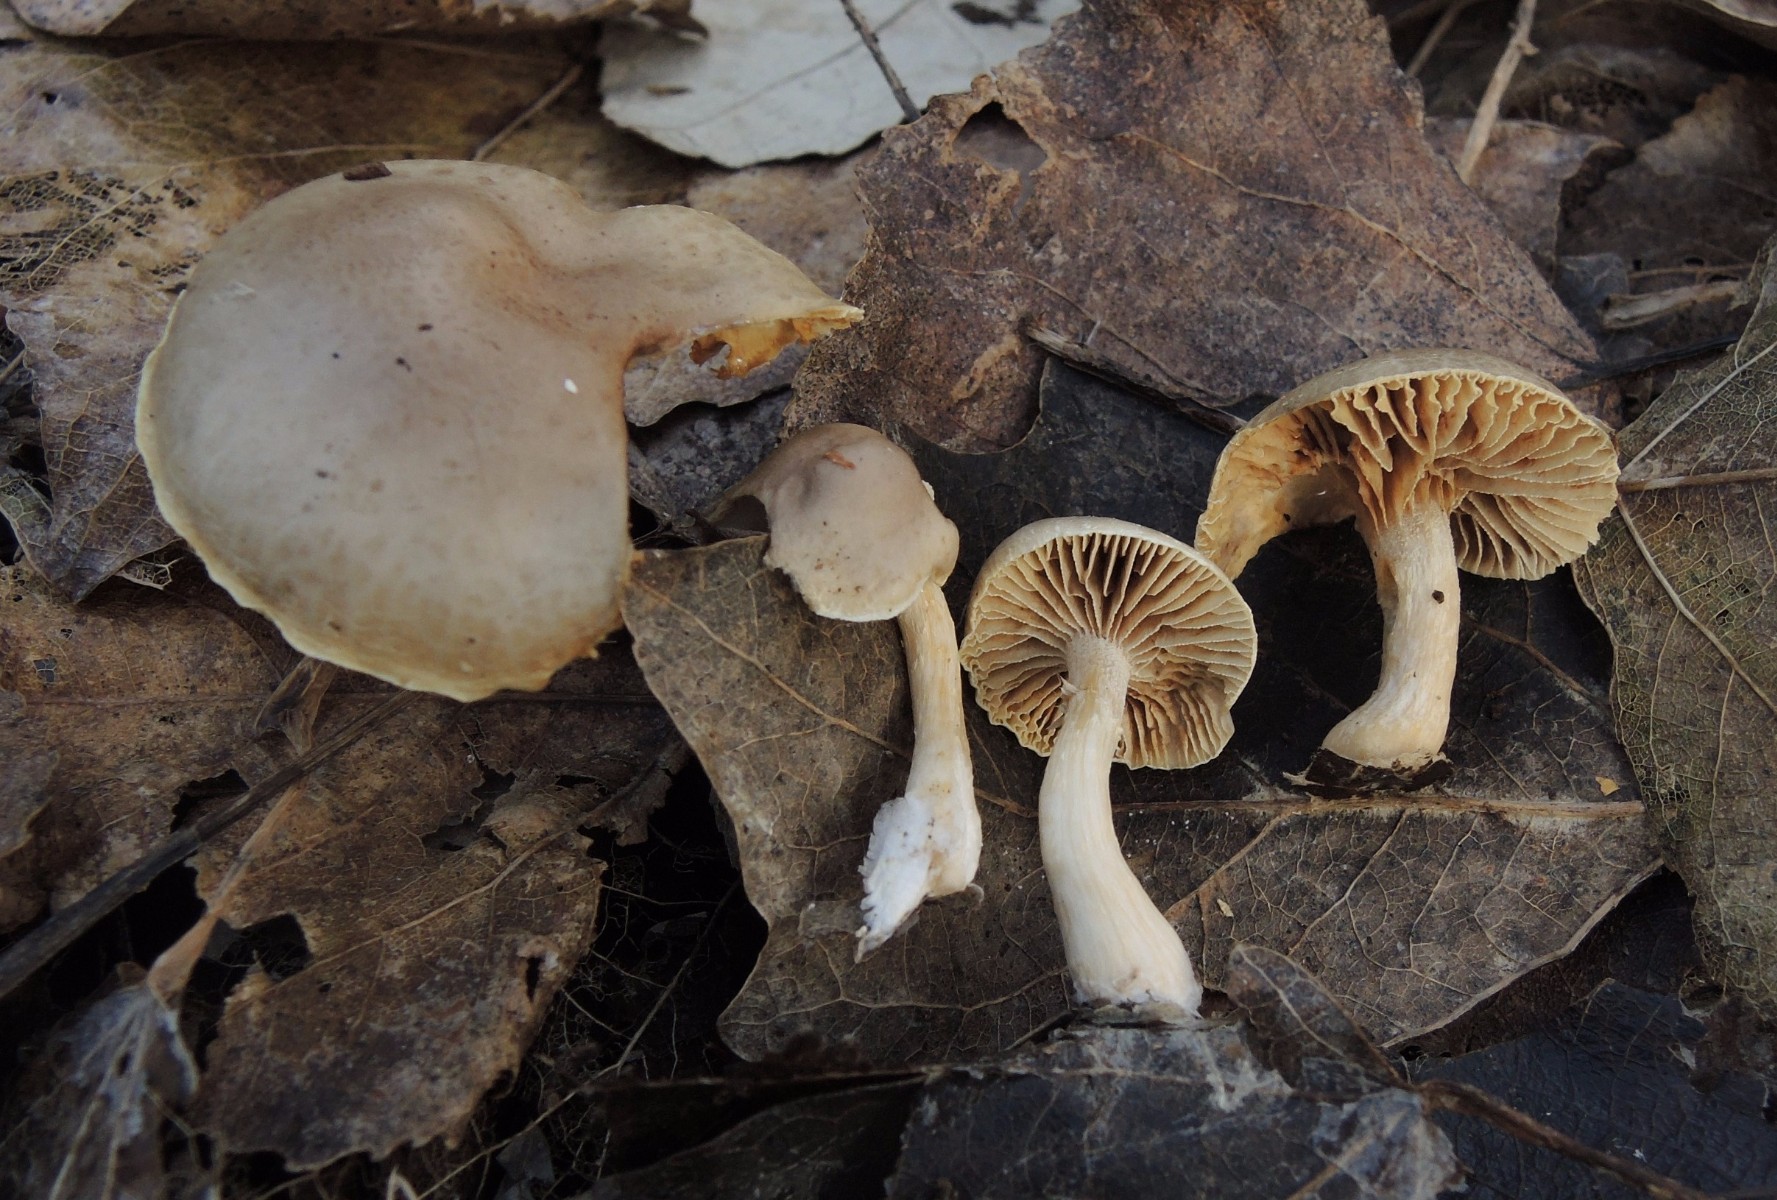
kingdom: Fungi
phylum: Basidiomycota
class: Agaricomycetes
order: Agaricales
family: Strophariaceae
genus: Meottomyces
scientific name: Meottomyces dissimulans
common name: smudsigbrun vinterskælhat
